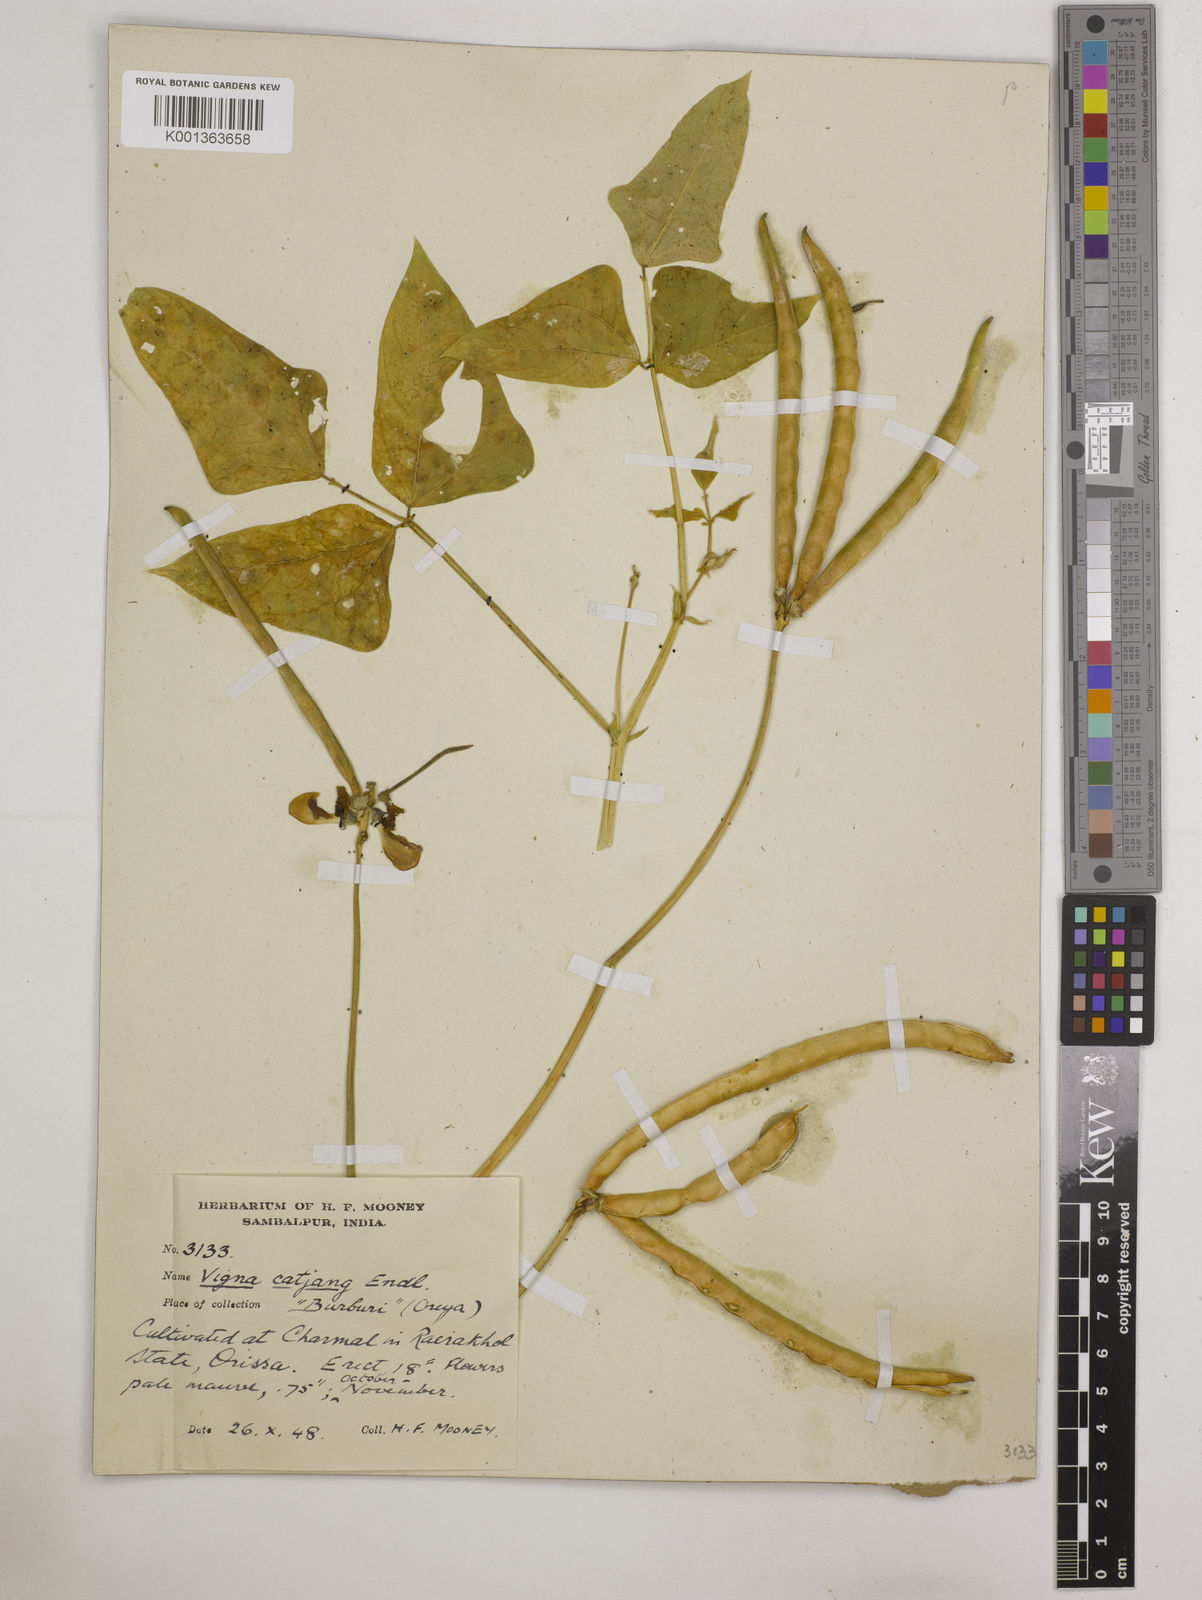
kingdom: Plantae
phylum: Tracheophyta
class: Magnoliopsida
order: Fabales
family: Fabaceae
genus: Vigna
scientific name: Vigna unguiculata
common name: Cowpea
